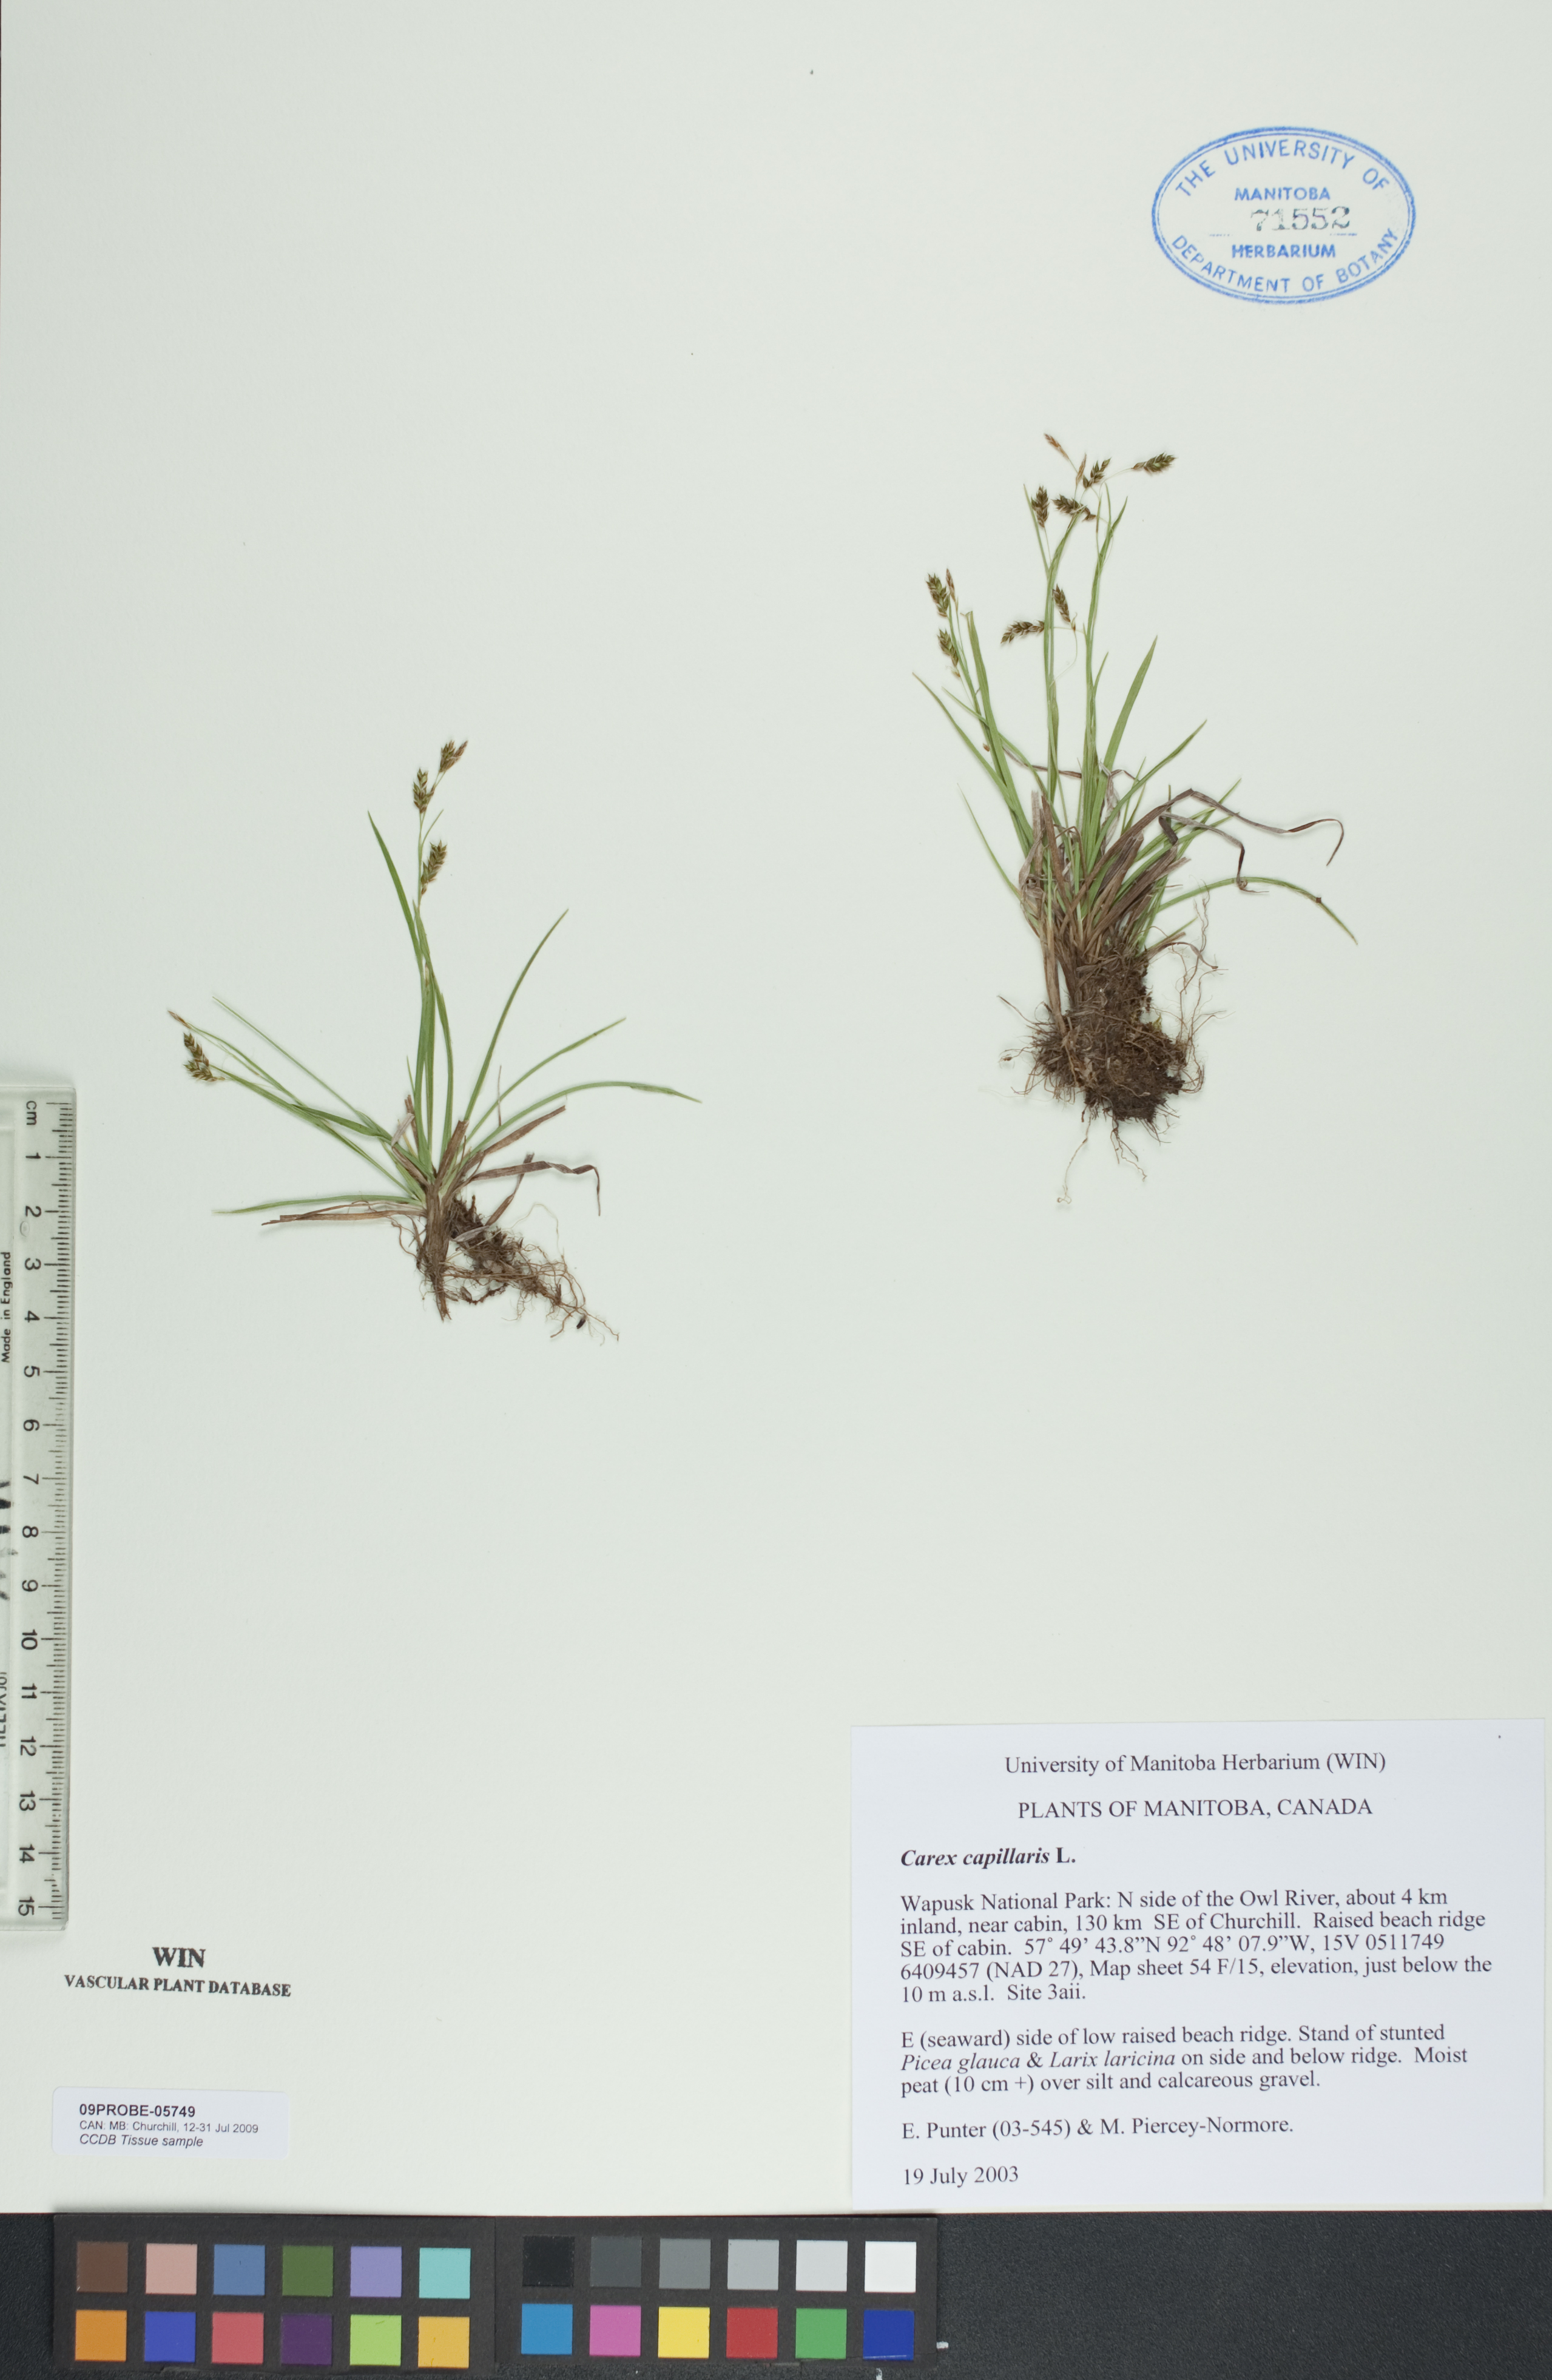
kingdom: Plantae
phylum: Tracheophyta
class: Liliopsida
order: Poales
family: Cyperaceae
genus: Carex
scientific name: Carex capillaris
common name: Hair sedge
